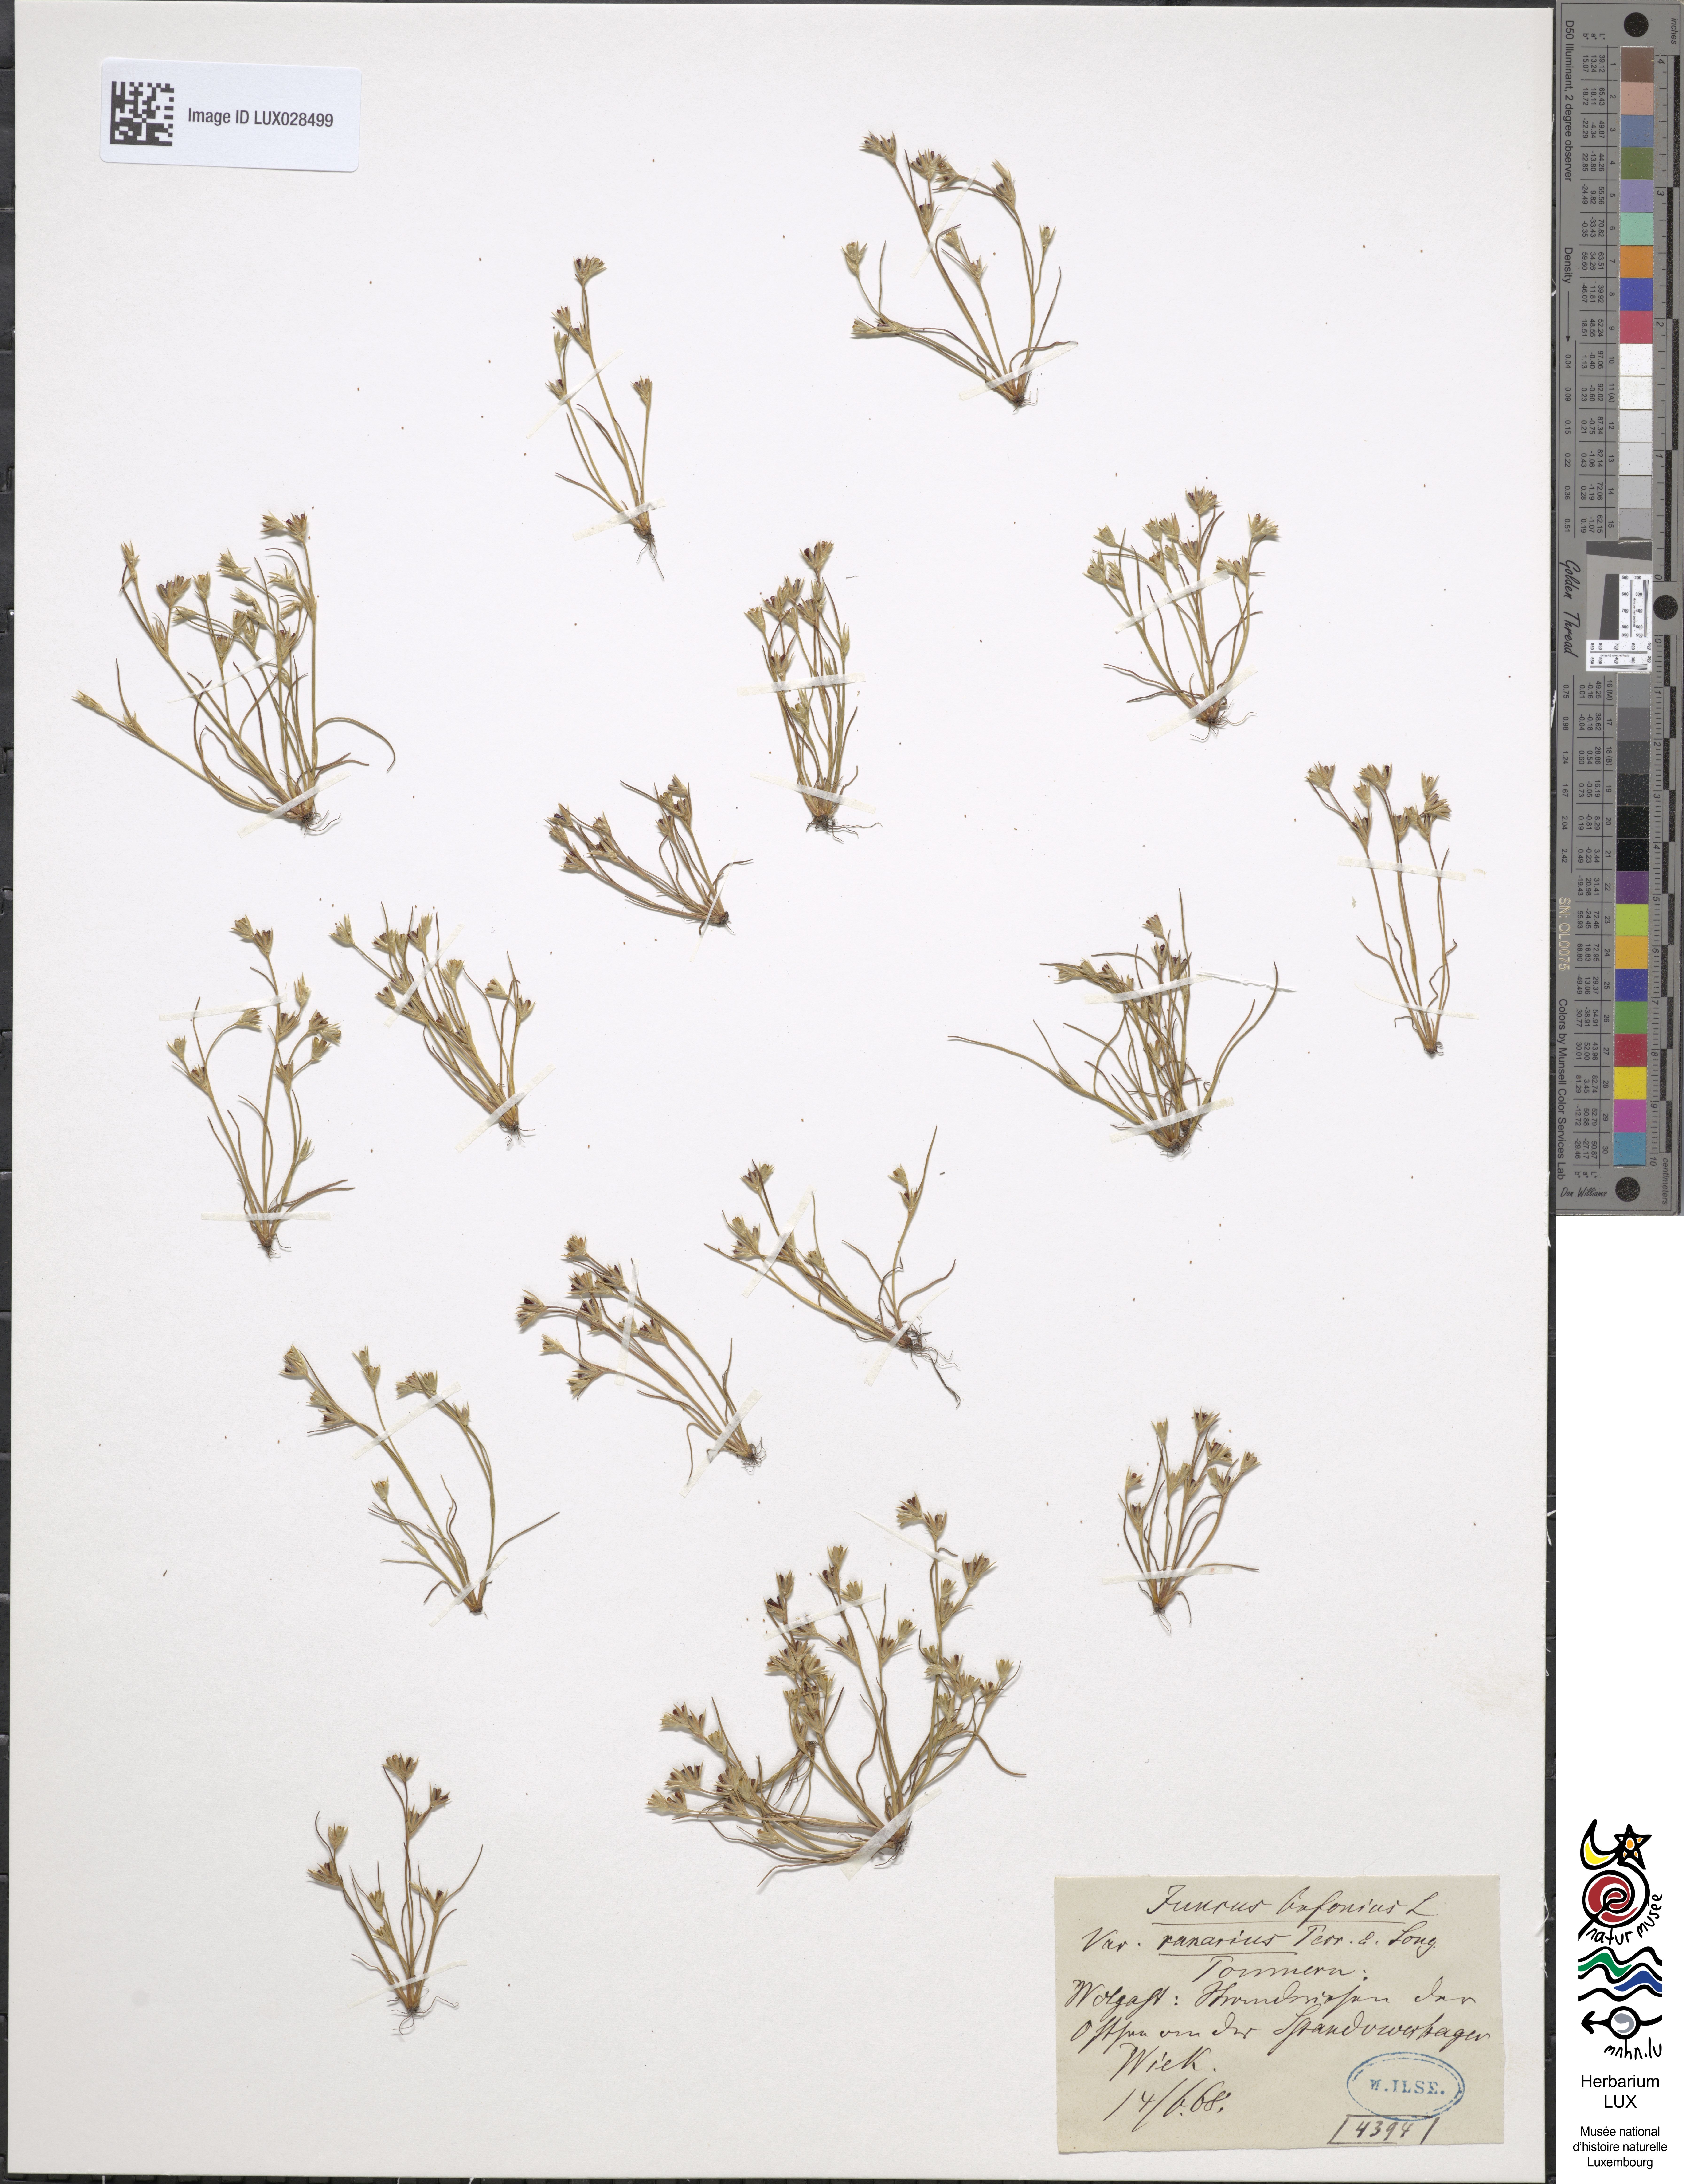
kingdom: Plantae
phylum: Tracheophyta
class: Liliopsida
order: Poales
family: Juncaceae
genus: Juncus
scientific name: Juncus ranarius
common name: Frog rush
